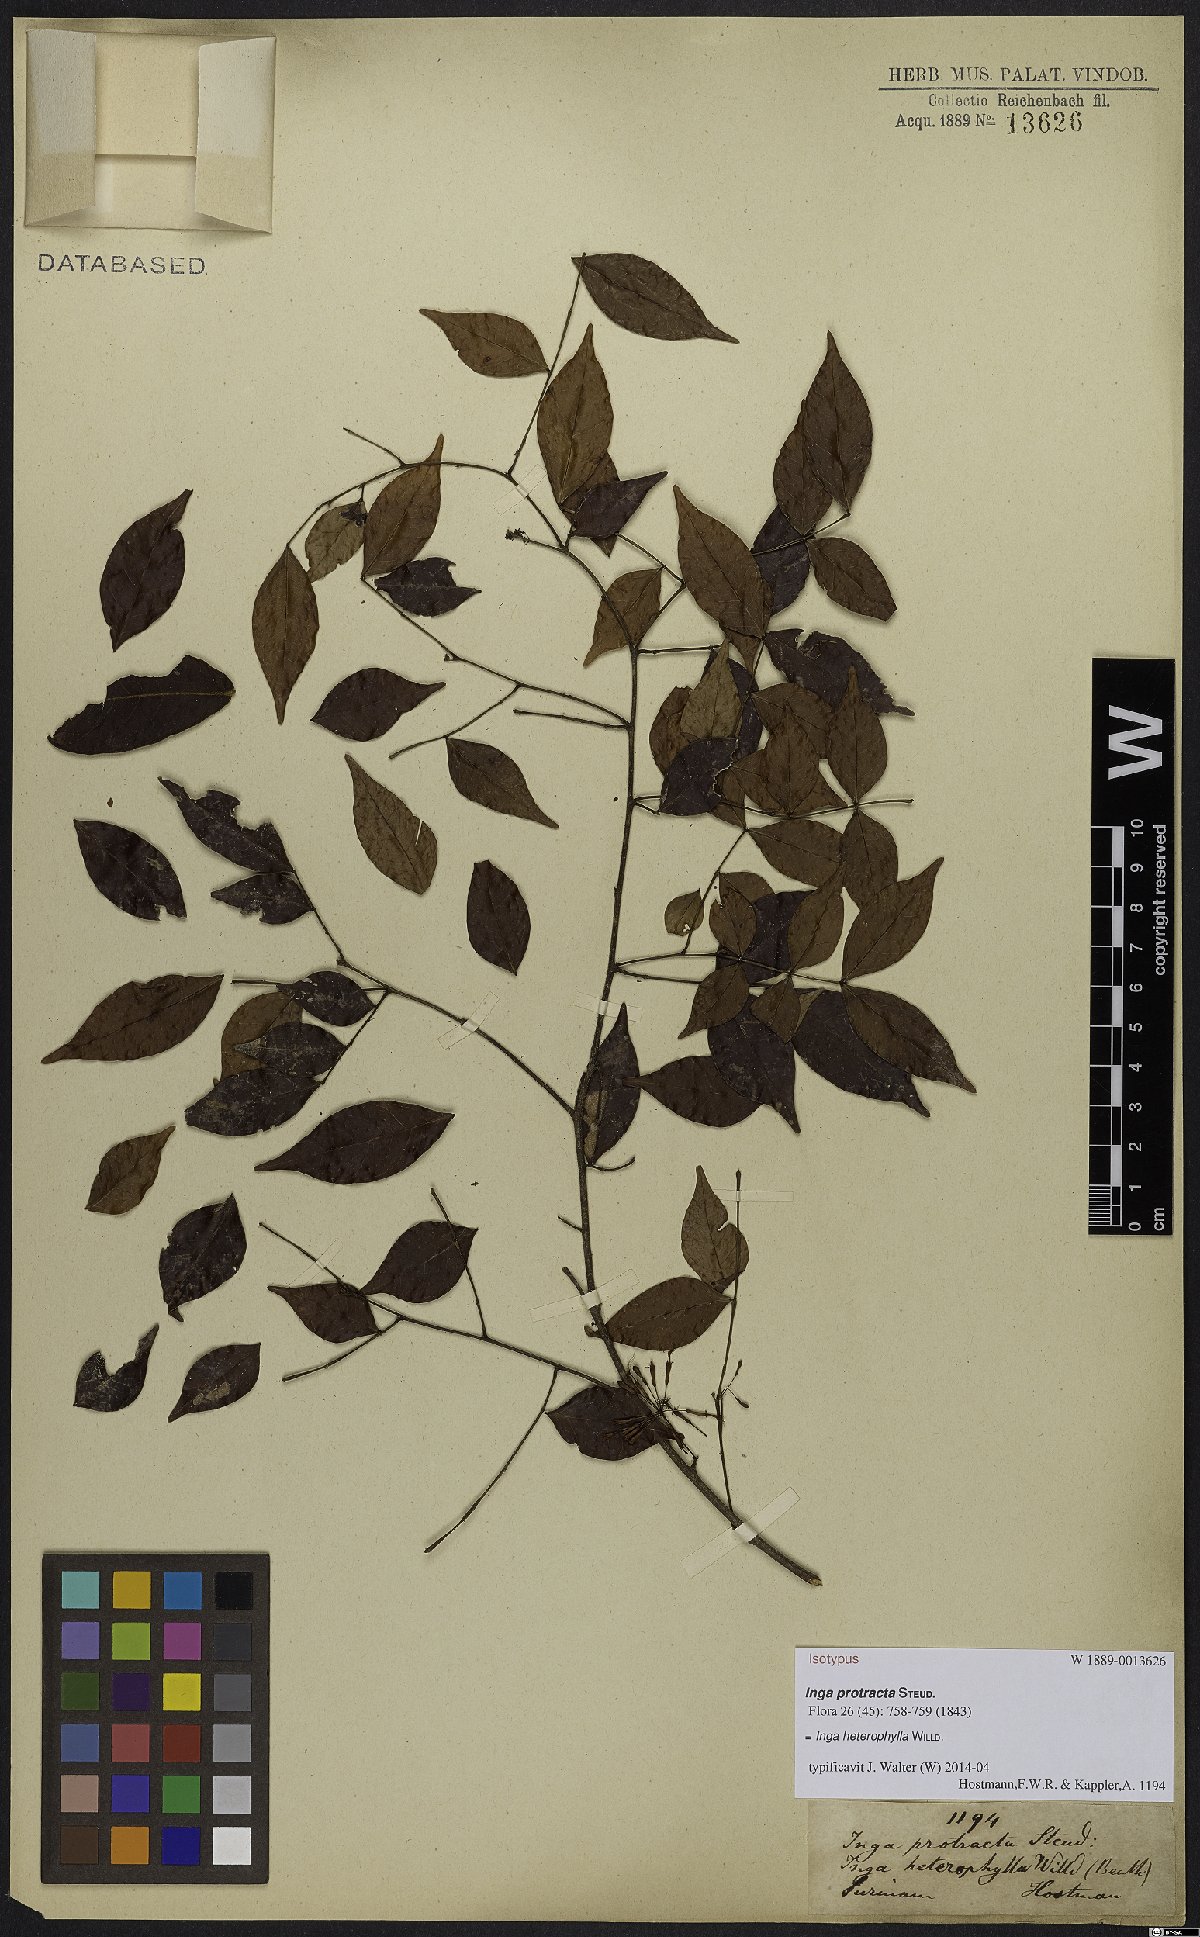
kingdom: Plantae
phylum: Tracheophyta
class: Magnoliopsida
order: Fabales
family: Fabaceae
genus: Inga
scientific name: Inga heterophylla
